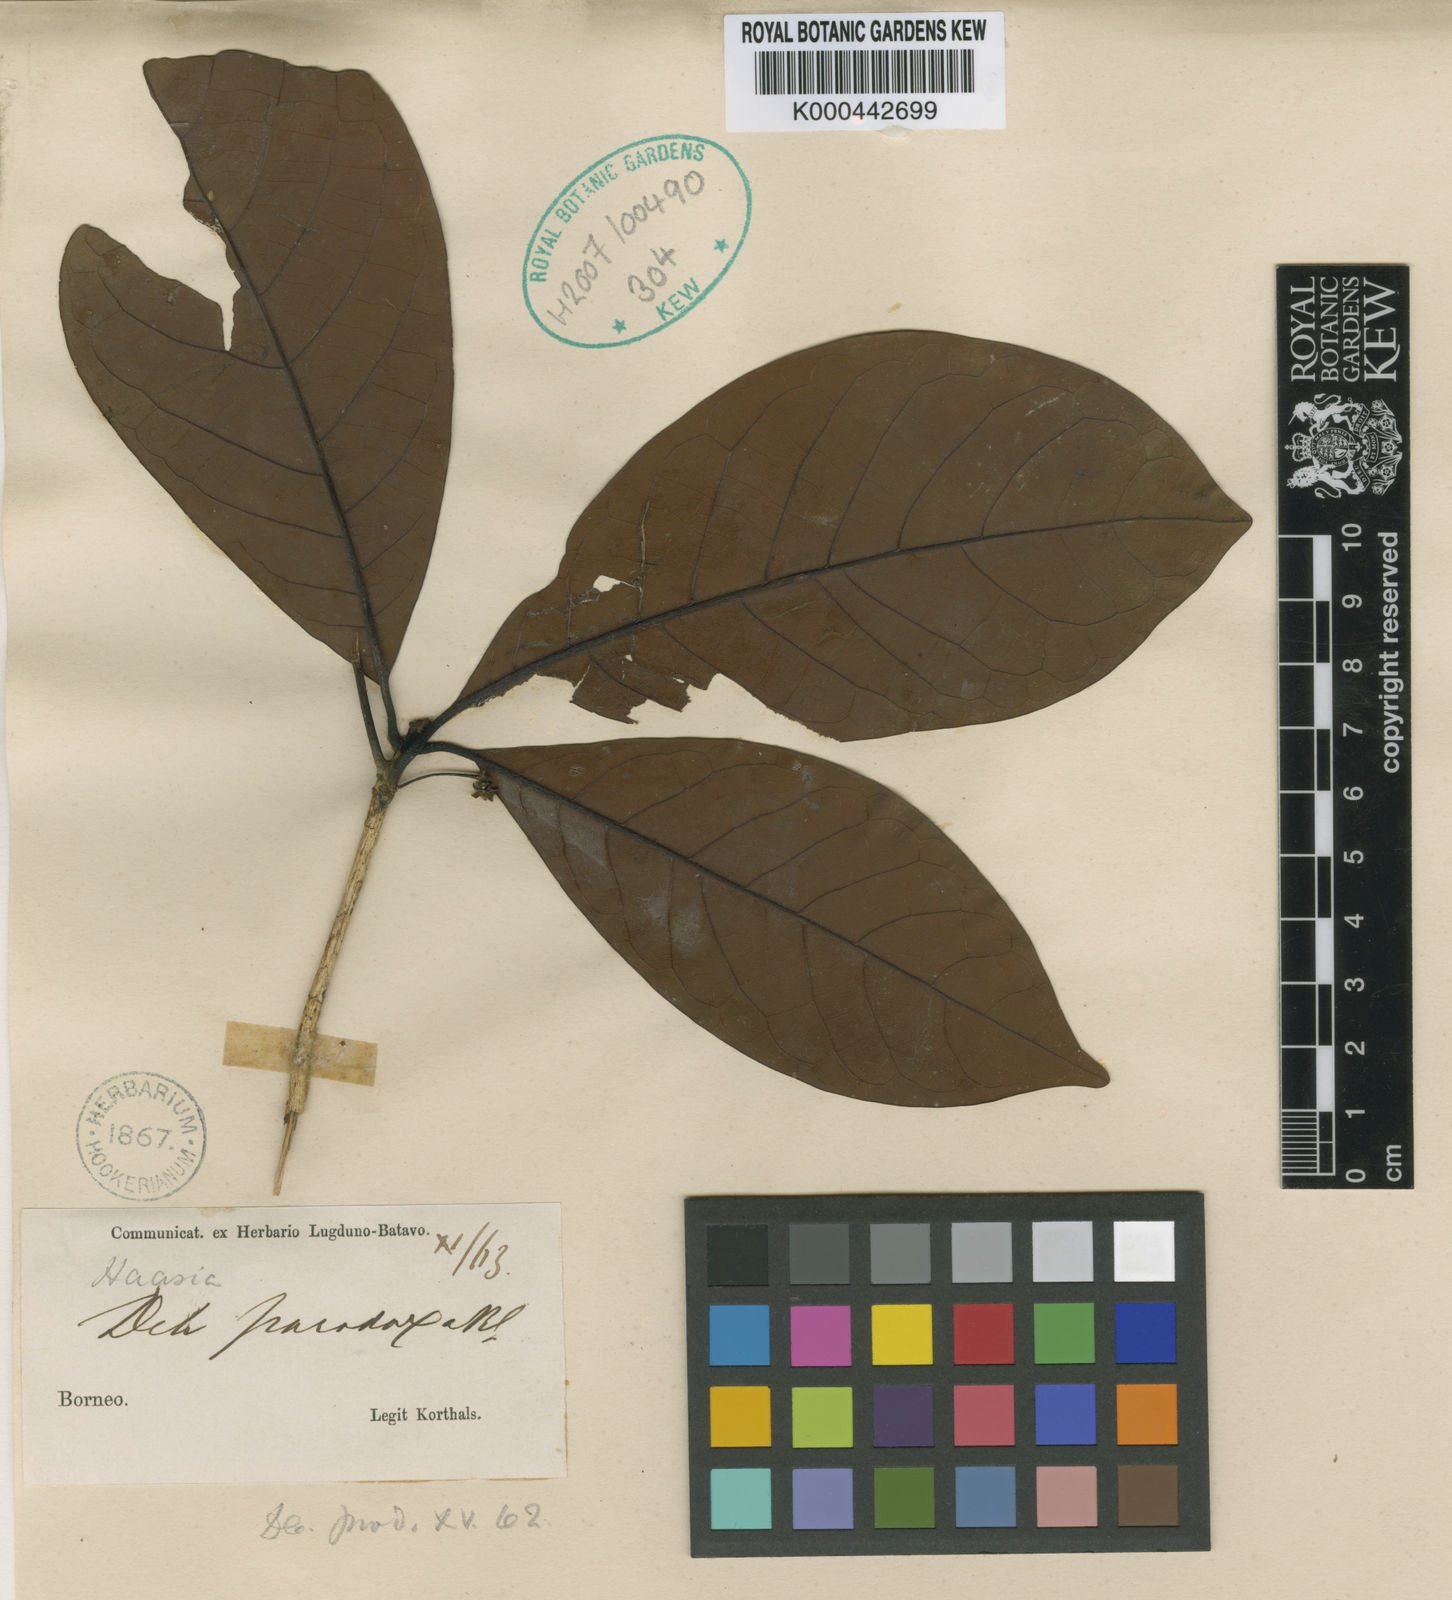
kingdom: Plantae
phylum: Tracheophyta
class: Magnoliopsida
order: Laurales
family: Lauraceae
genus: Dehaasia
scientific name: Dehaasia paradoxa
